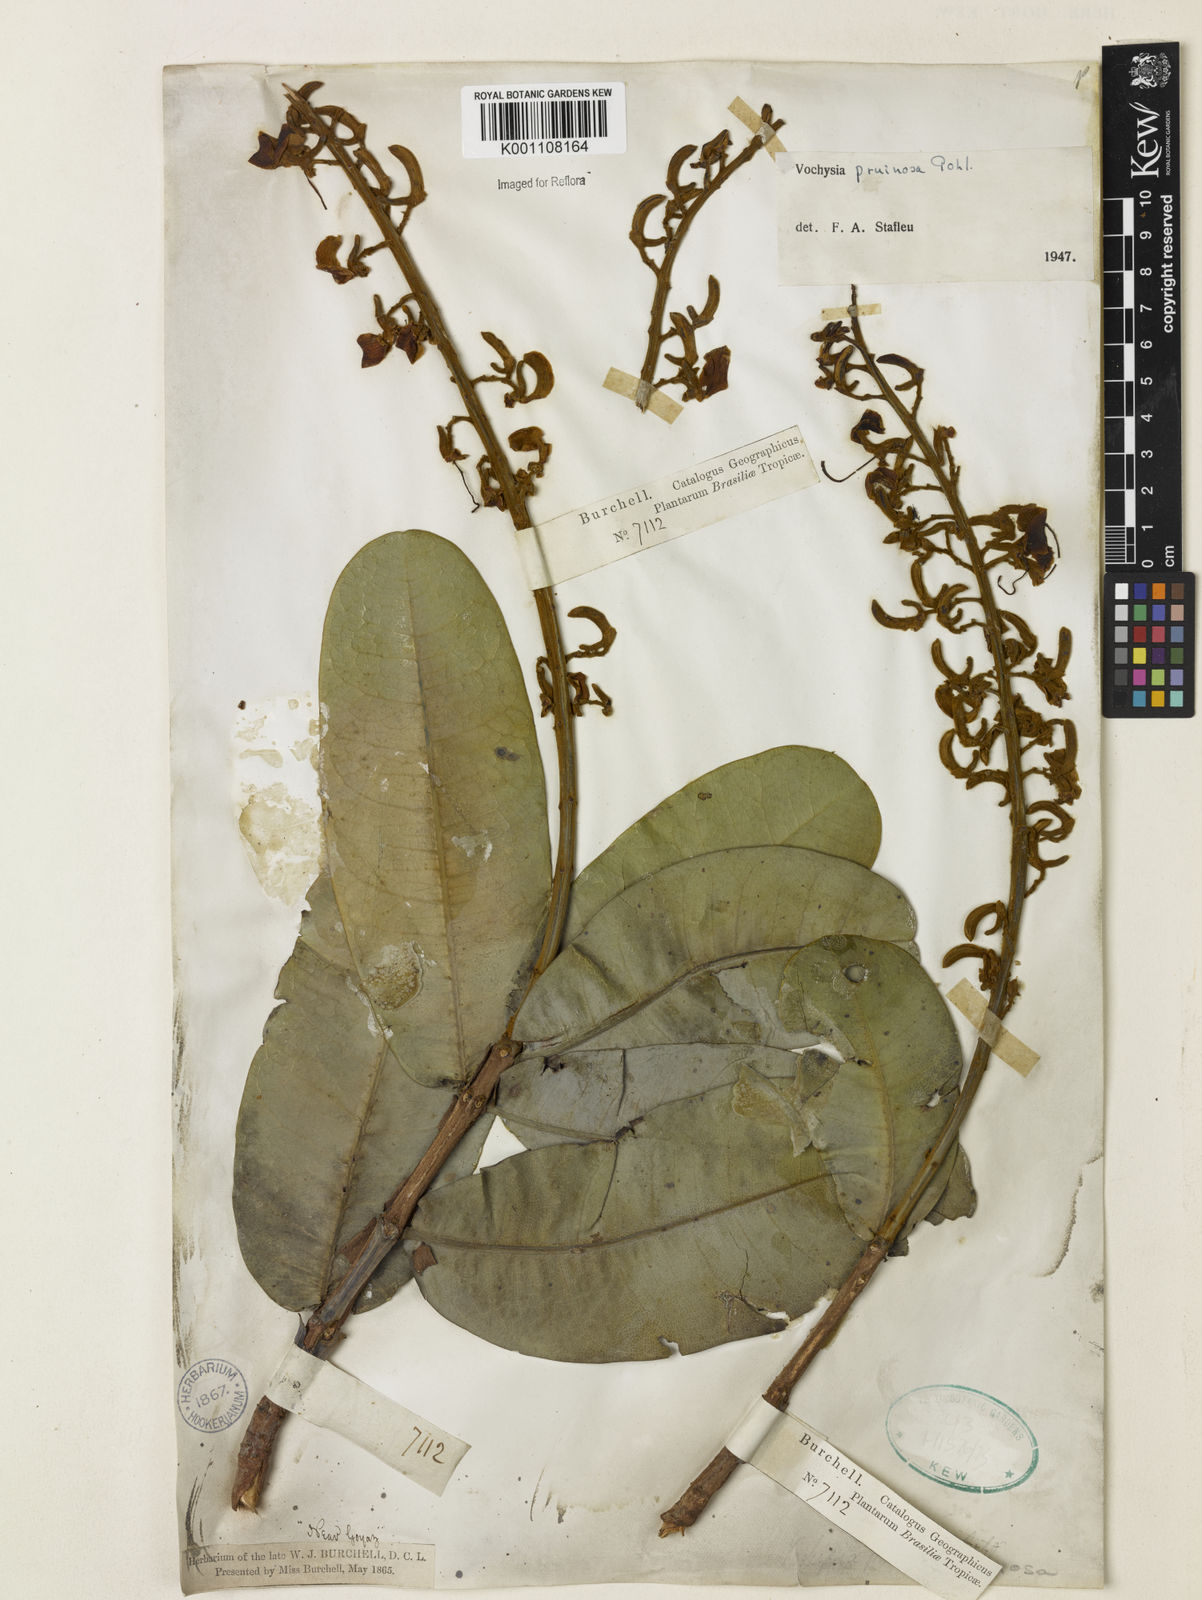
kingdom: Plantae
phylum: Tracheophyta
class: Magnoliopsida
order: Myrtales
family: Vochysiaceae
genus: Vochysia
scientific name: Vochysia pruinosa
